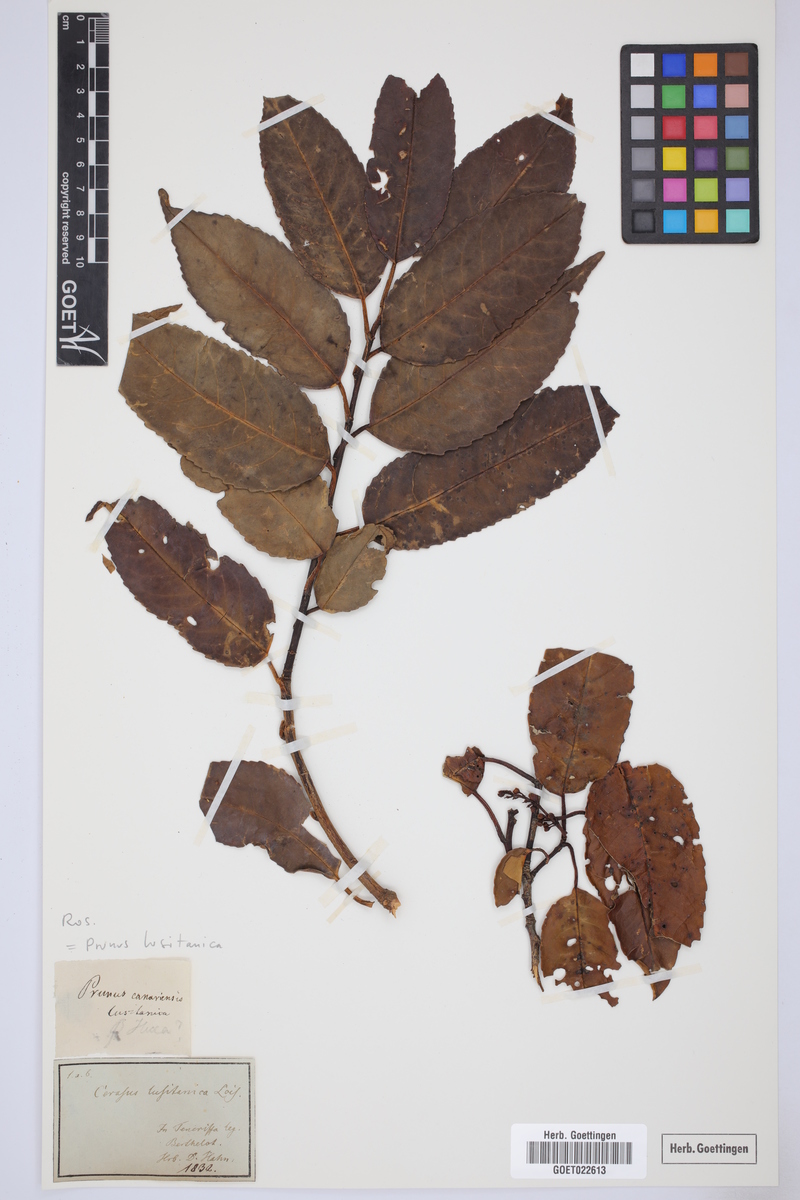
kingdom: Plantae
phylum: Tracheophyta
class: Magnoliopsida
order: Rosales
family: Rosaceae
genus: Prunus
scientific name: Prunus lusitanica
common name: Portugal laurel
